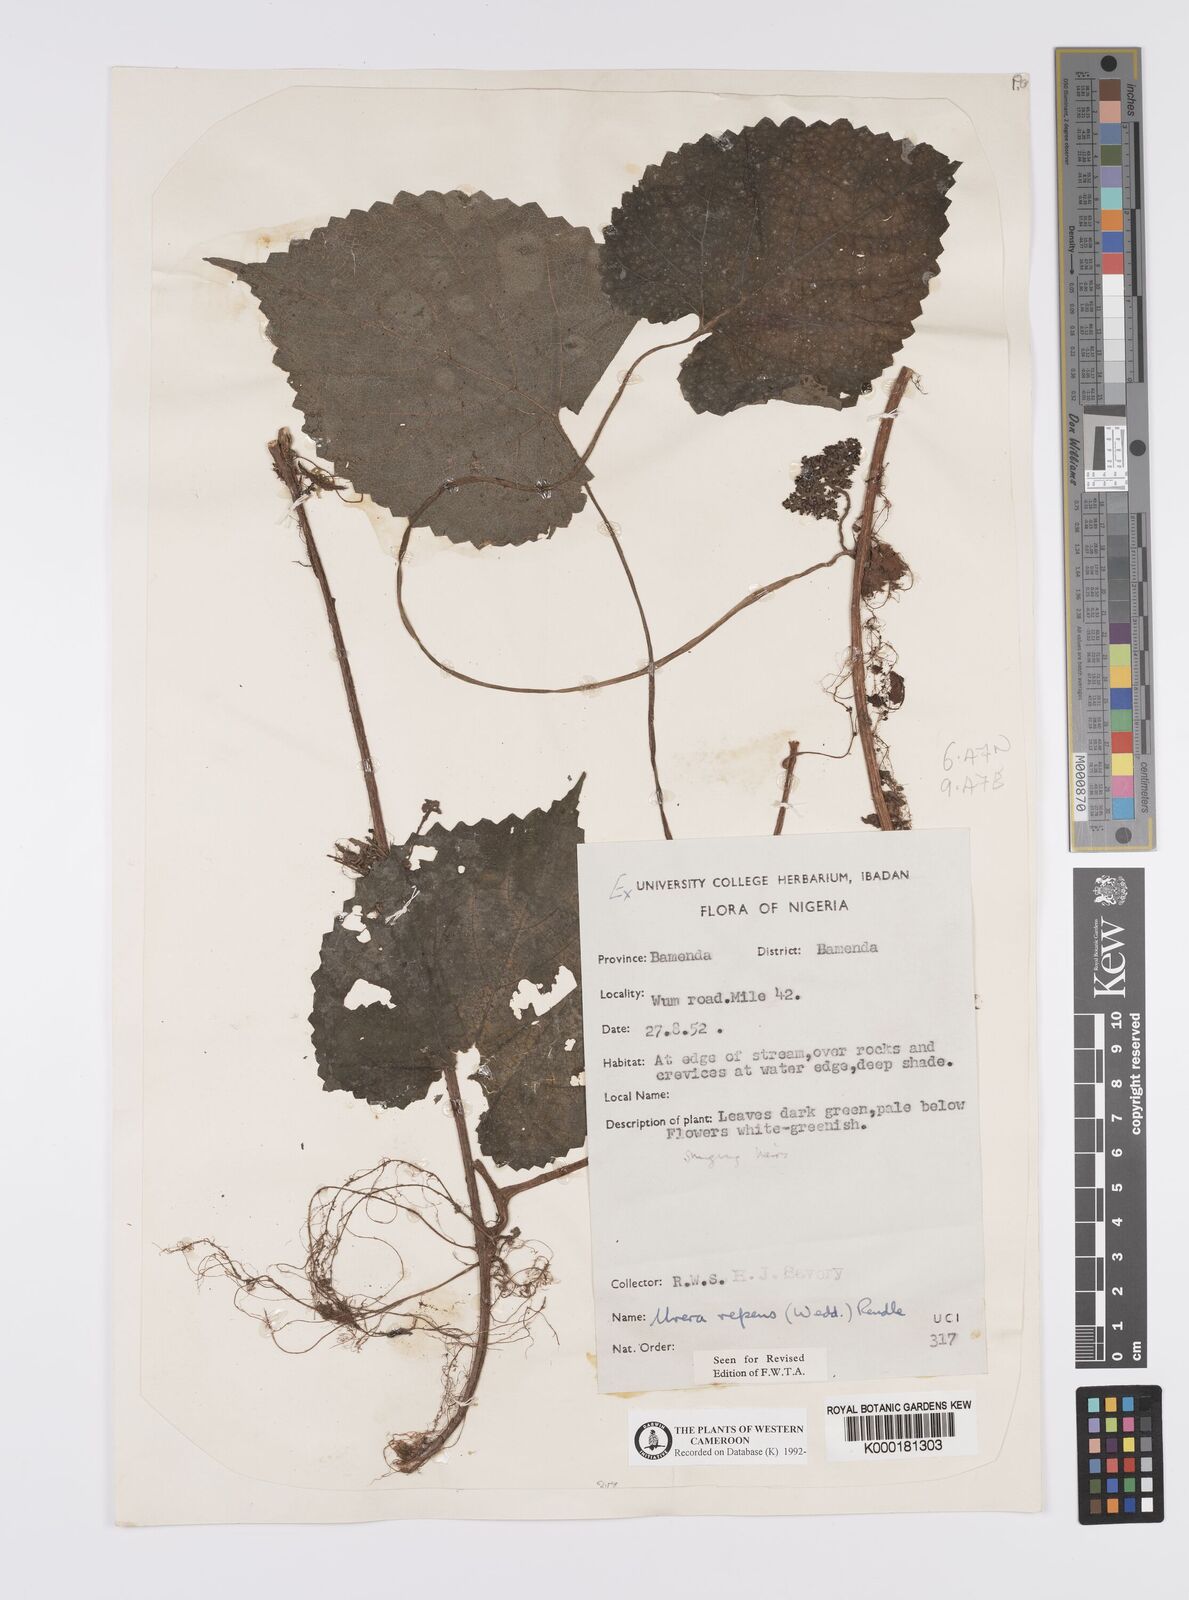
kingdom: Plantae
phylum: Tracheophyta
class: Magnoliopsida
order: Rosales
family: Urticaceae
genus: Scepocarpus
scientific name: Scepocarpus repens
